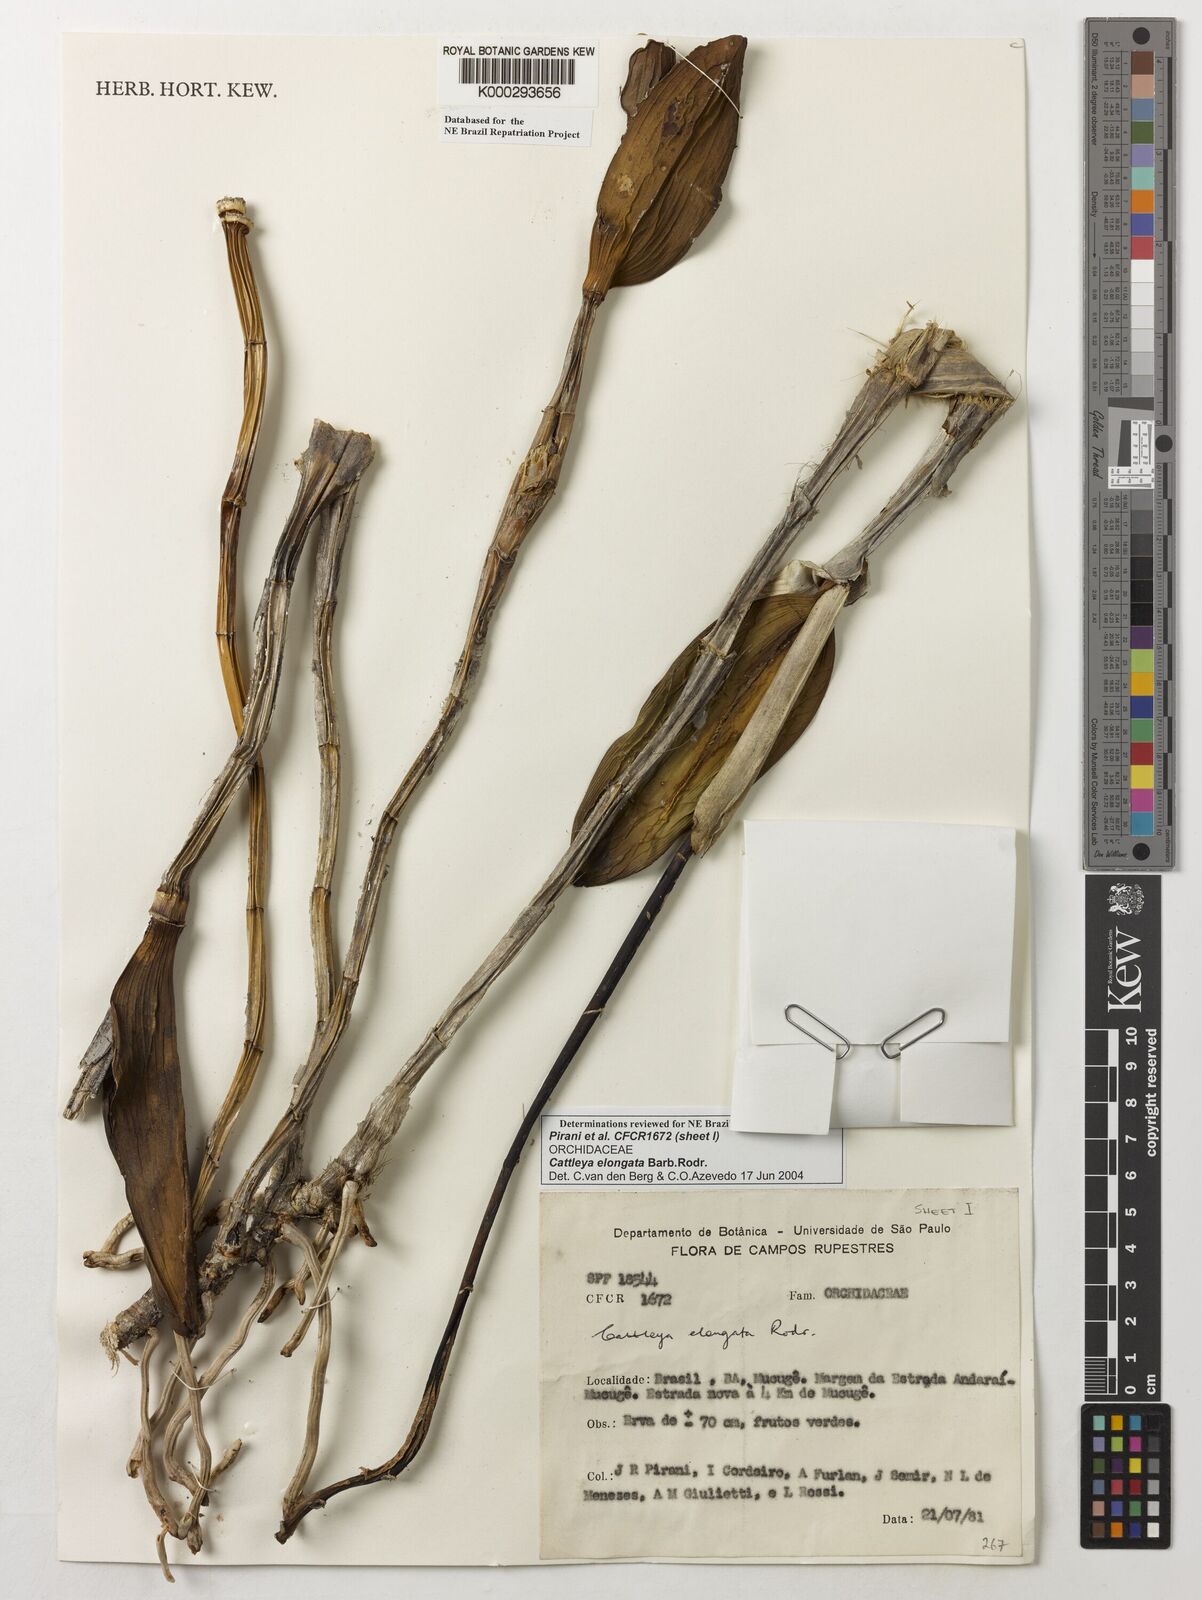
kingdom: Plantae
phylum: Tracheophyta
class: Liliopsida
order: Asparagales
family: Orchidaceae
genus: Cattleya
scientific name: Cattleya elongata
